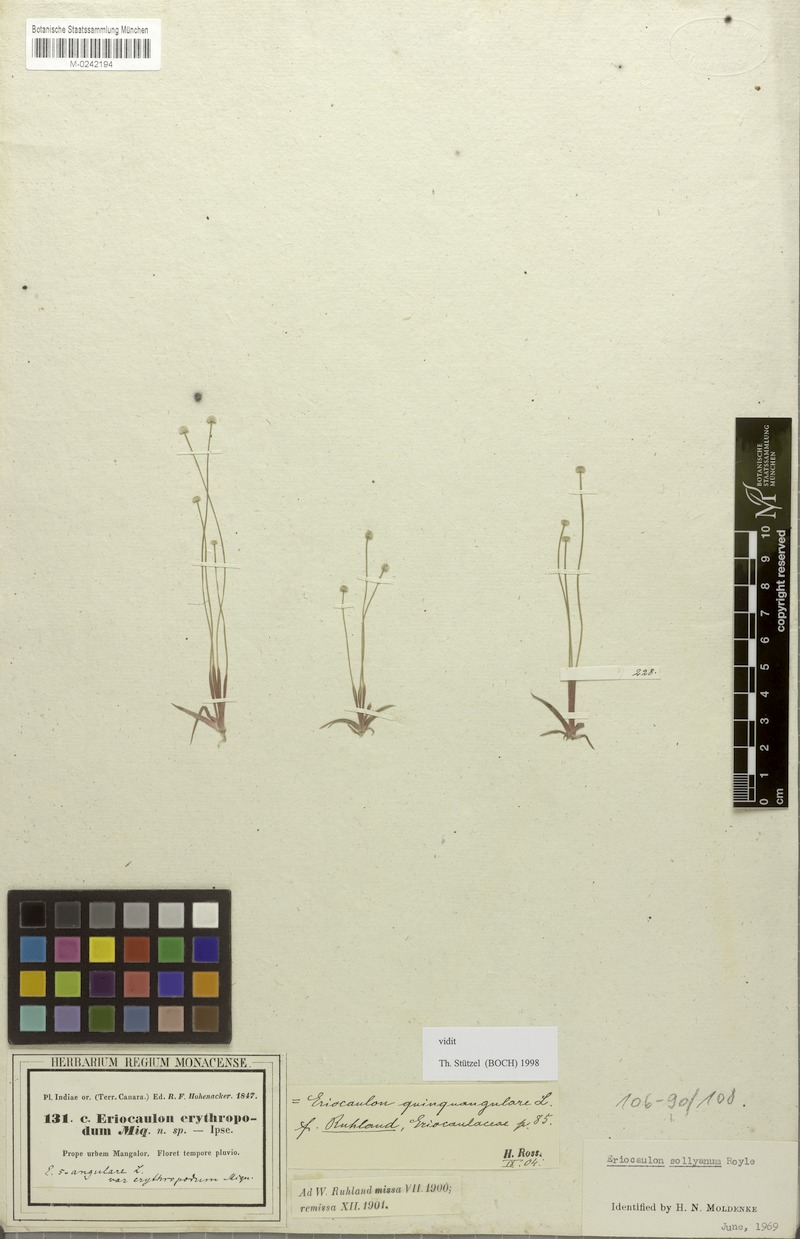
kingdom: Plantae
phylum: Tracheophyta
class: Liliopsida
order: Poales
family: Eriocaulaceae
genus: Eriocaulon
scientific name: Eriocaulon sollyanum
